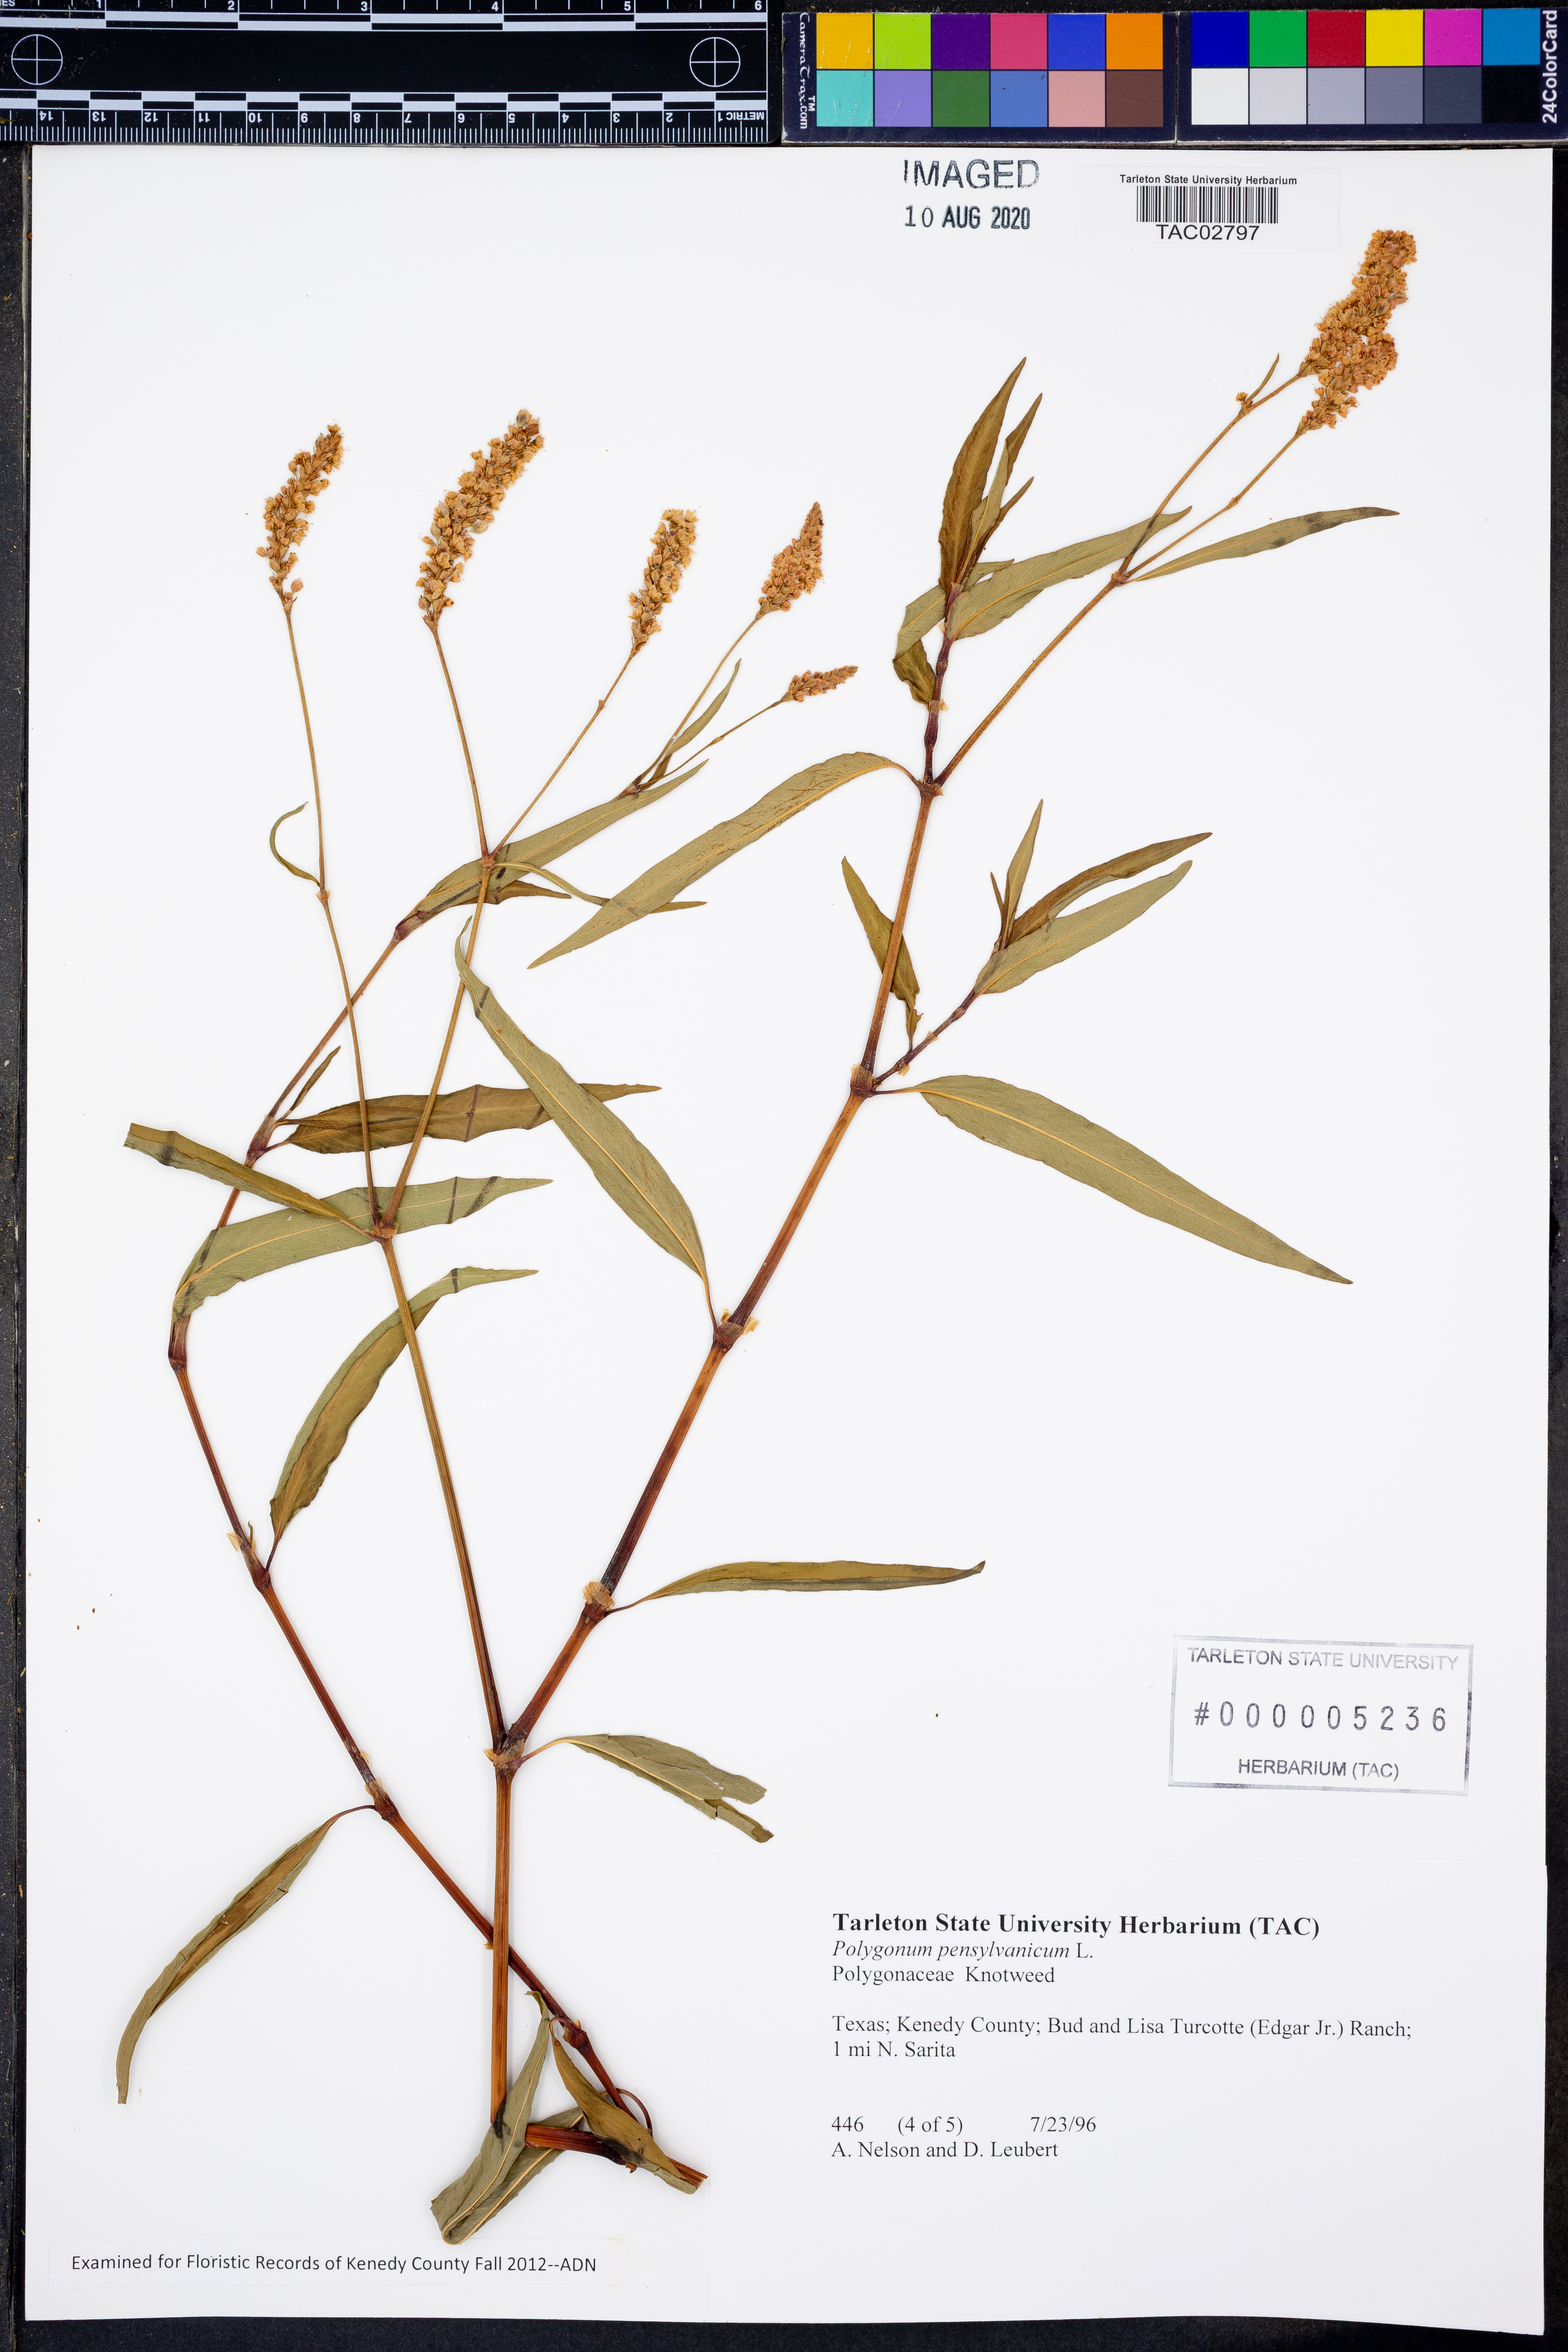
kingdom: Plantae
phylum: Tracheophyta
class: Magnoliopsida
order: Caryophyllales
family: Polygonaceae
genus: Persicaria
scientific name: Persicaria pensylvanica
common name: Pinkweed
